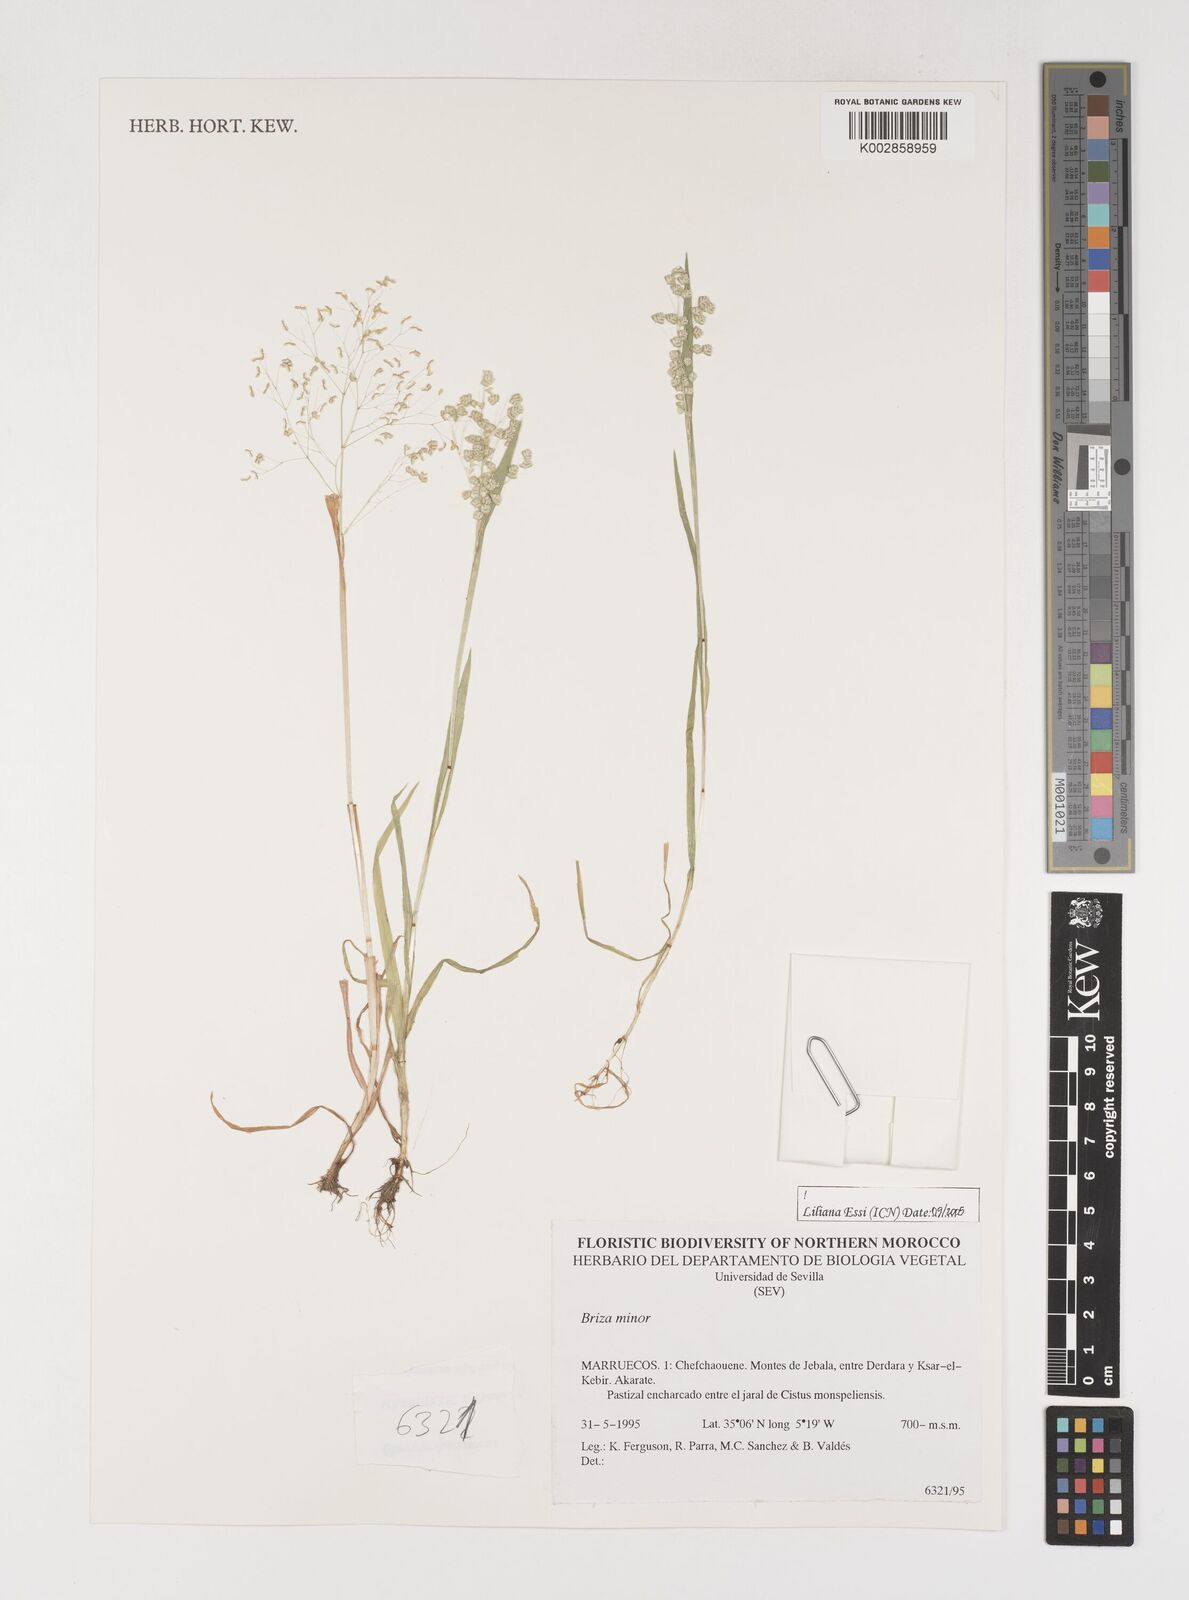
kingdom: Plantae
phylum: Tracheophyta
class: Liliopsida
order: Poales
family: Poaceae
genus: Briza
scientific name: Briza minor
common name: Lesser quaking-grass
